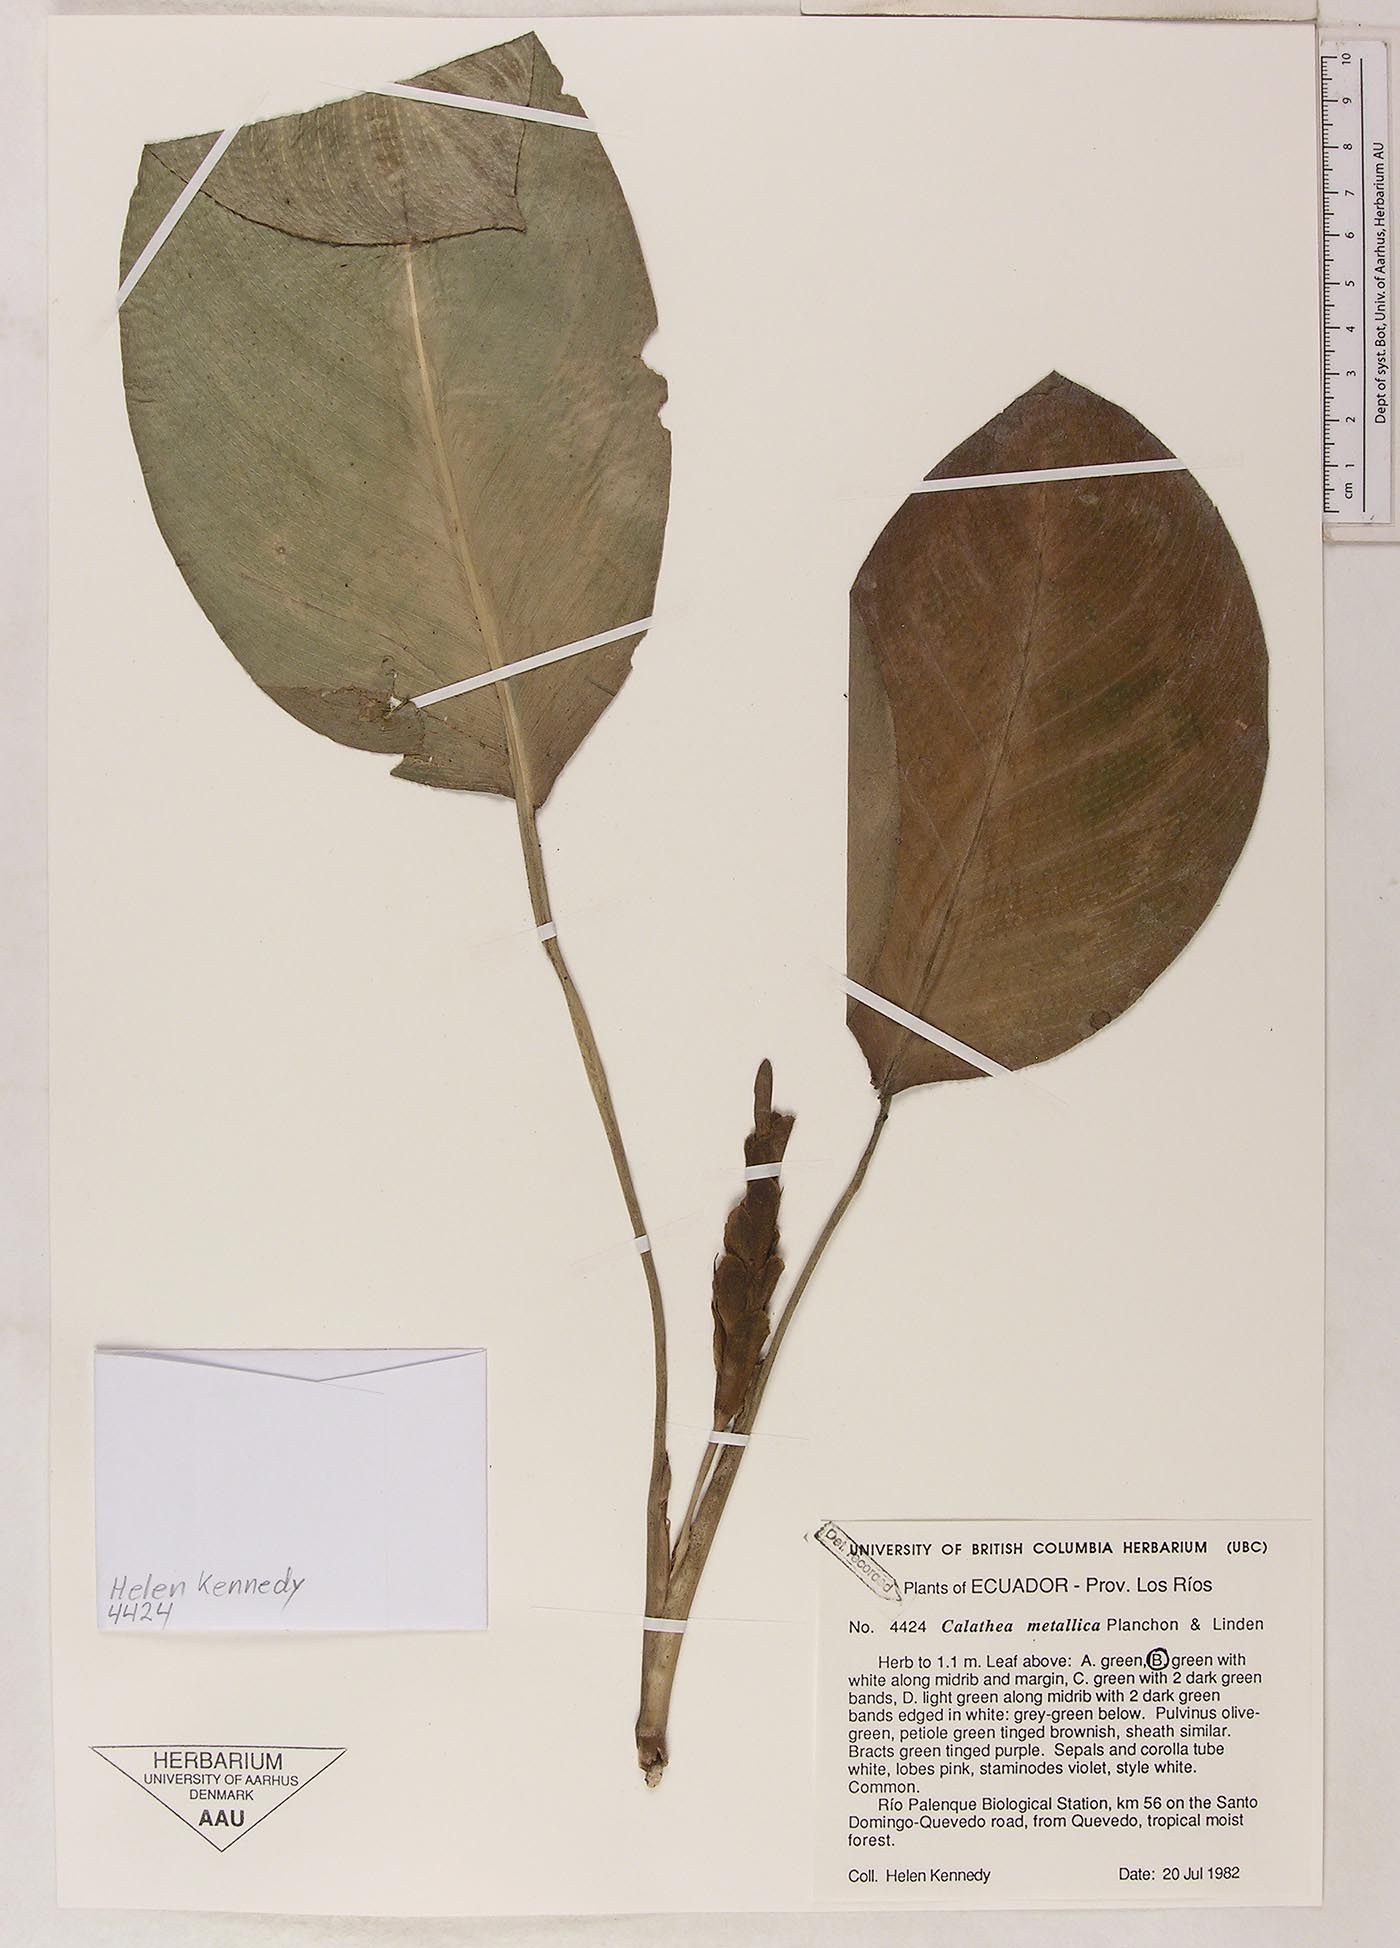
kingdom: Plantae
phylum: Tracheophyta
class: Liliopsida
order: Zingiberales
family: Marantaceae
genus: Goeppertia
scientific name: Goeppertia metallica
